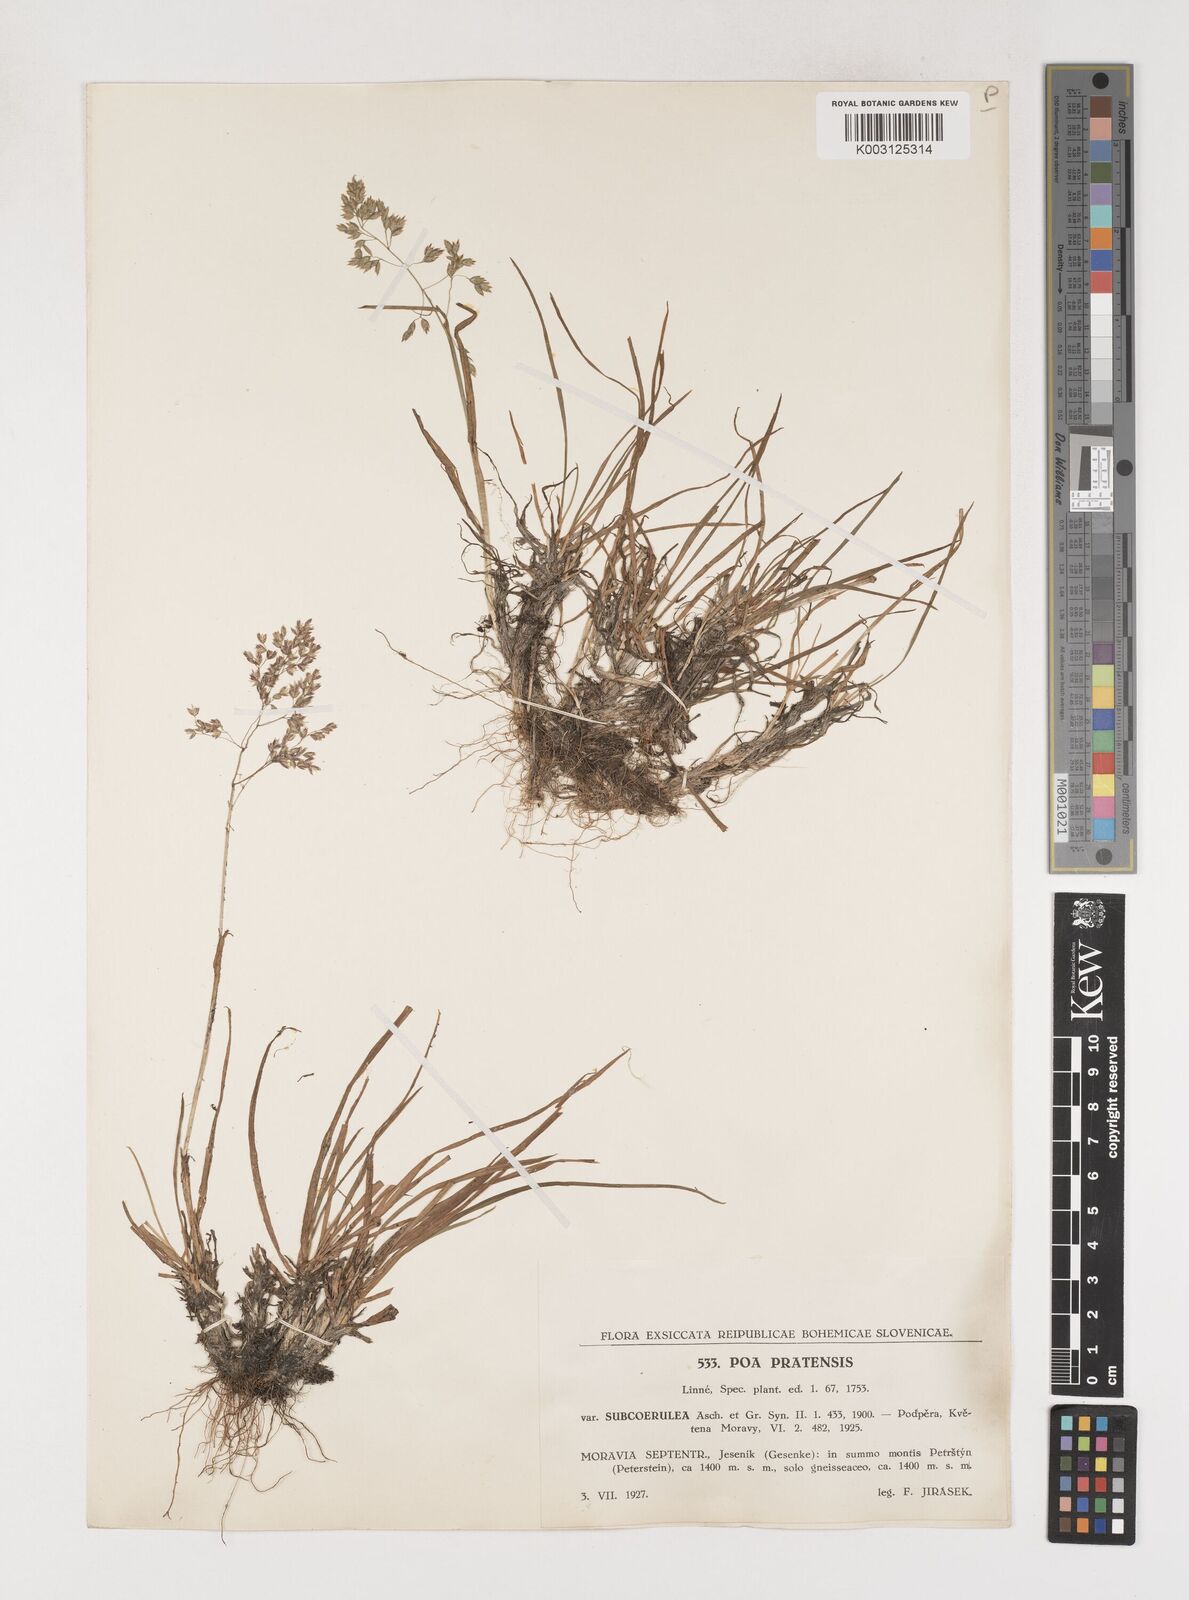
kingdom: Plantae
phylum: Tracheophyta
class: Liliopsida
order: Poales
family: Poaceae
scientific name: Poaceae
